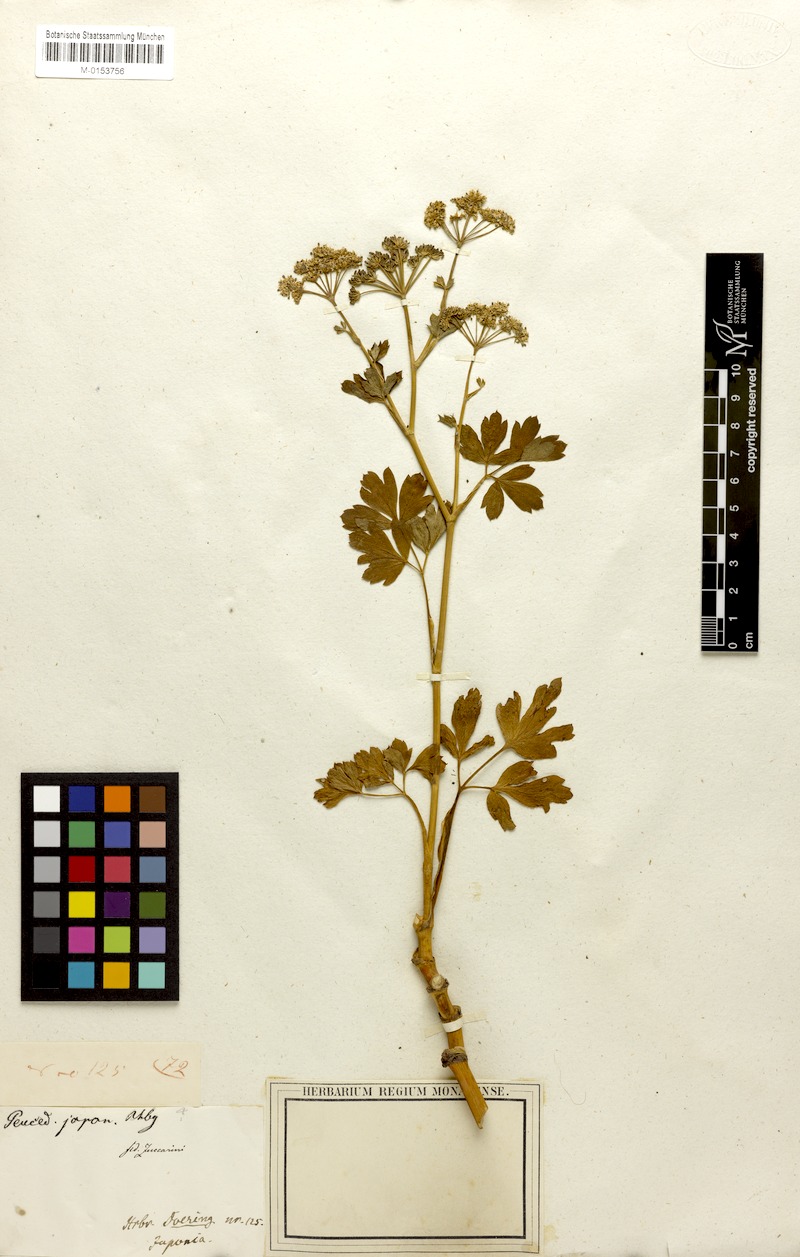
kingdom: Plantae
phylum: Tracheophyta
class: Magnoliopsida
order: Apiales
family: Apiaceae
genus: Peucedanum
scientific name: Peucedanum japonicum
